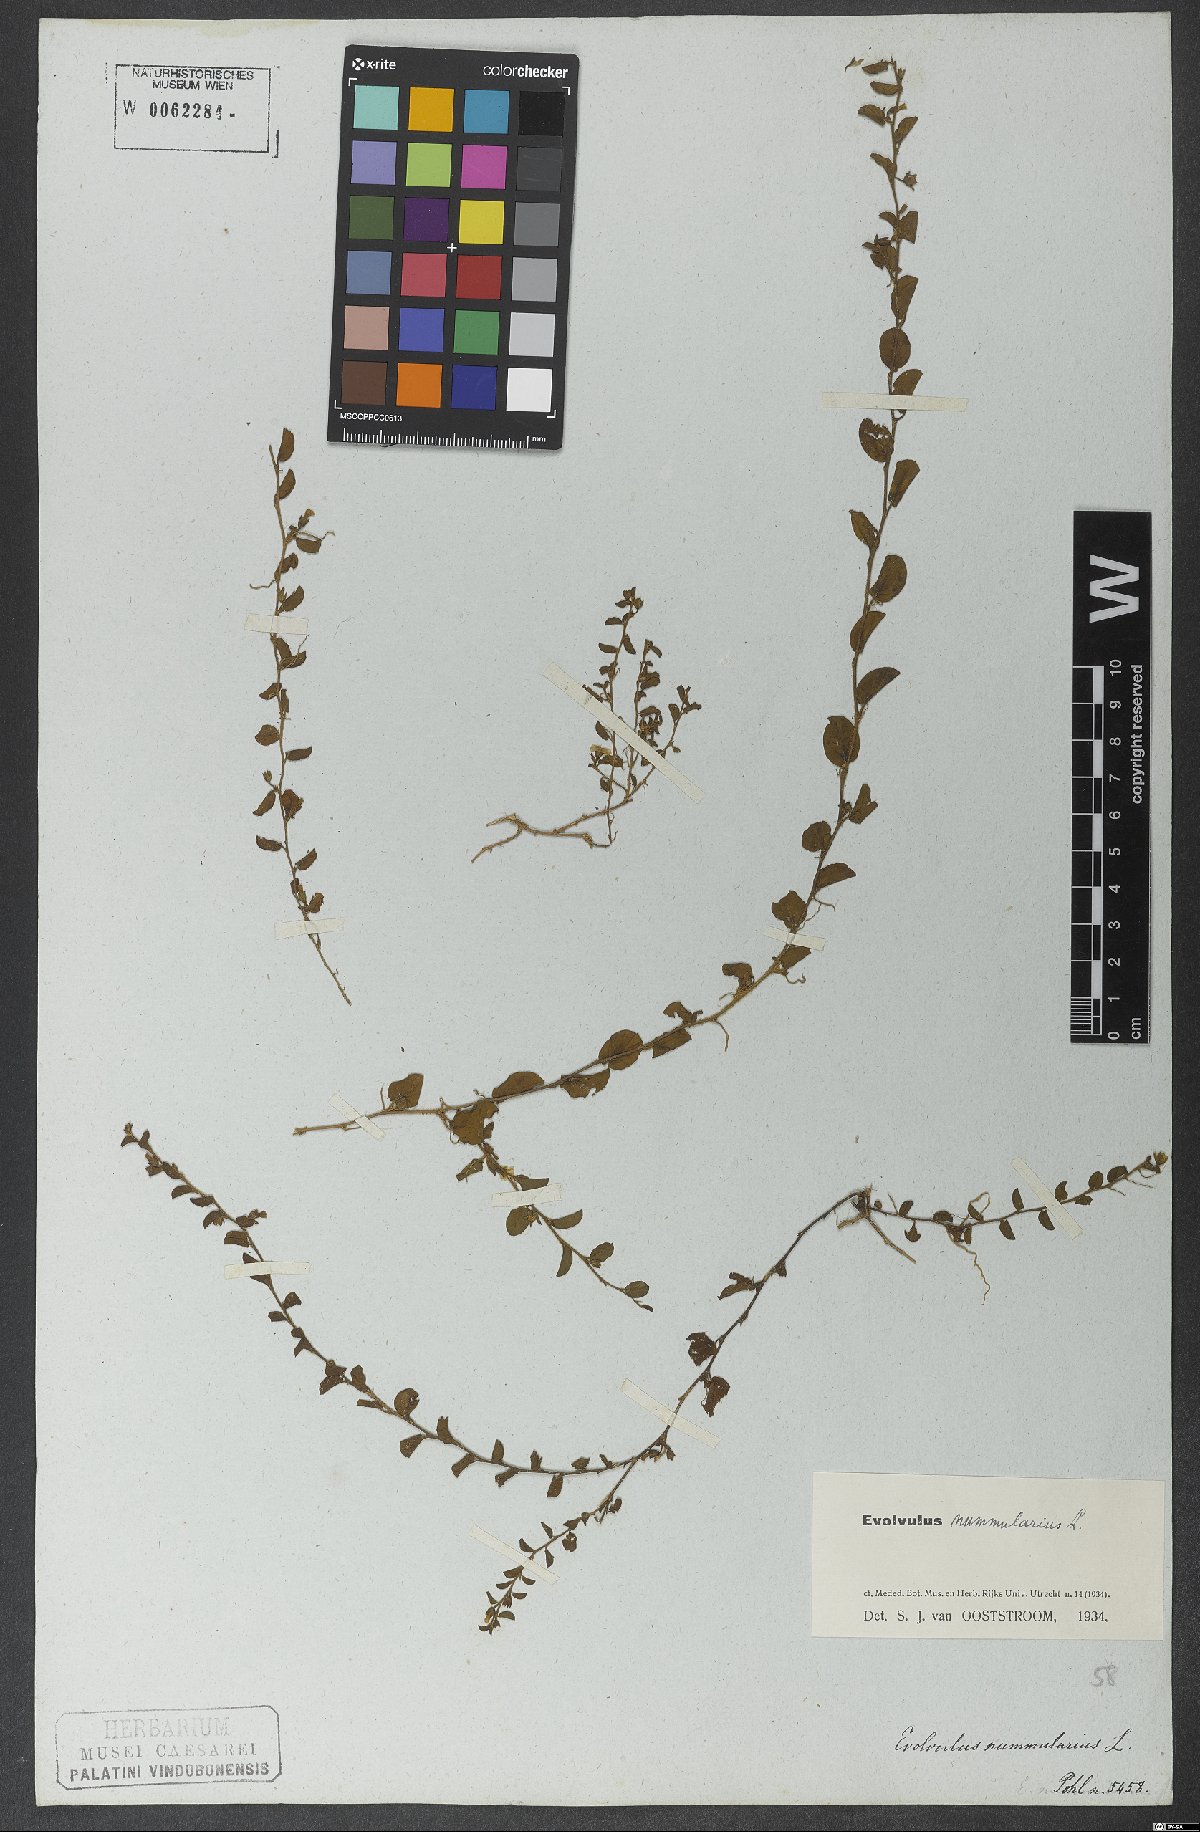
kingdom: Plantae
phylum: Tracheophyta
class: Magnoliopsida
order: Solanales
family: Convolvulaceae
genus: Evolvulus
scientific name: Evolvulus nummularius
